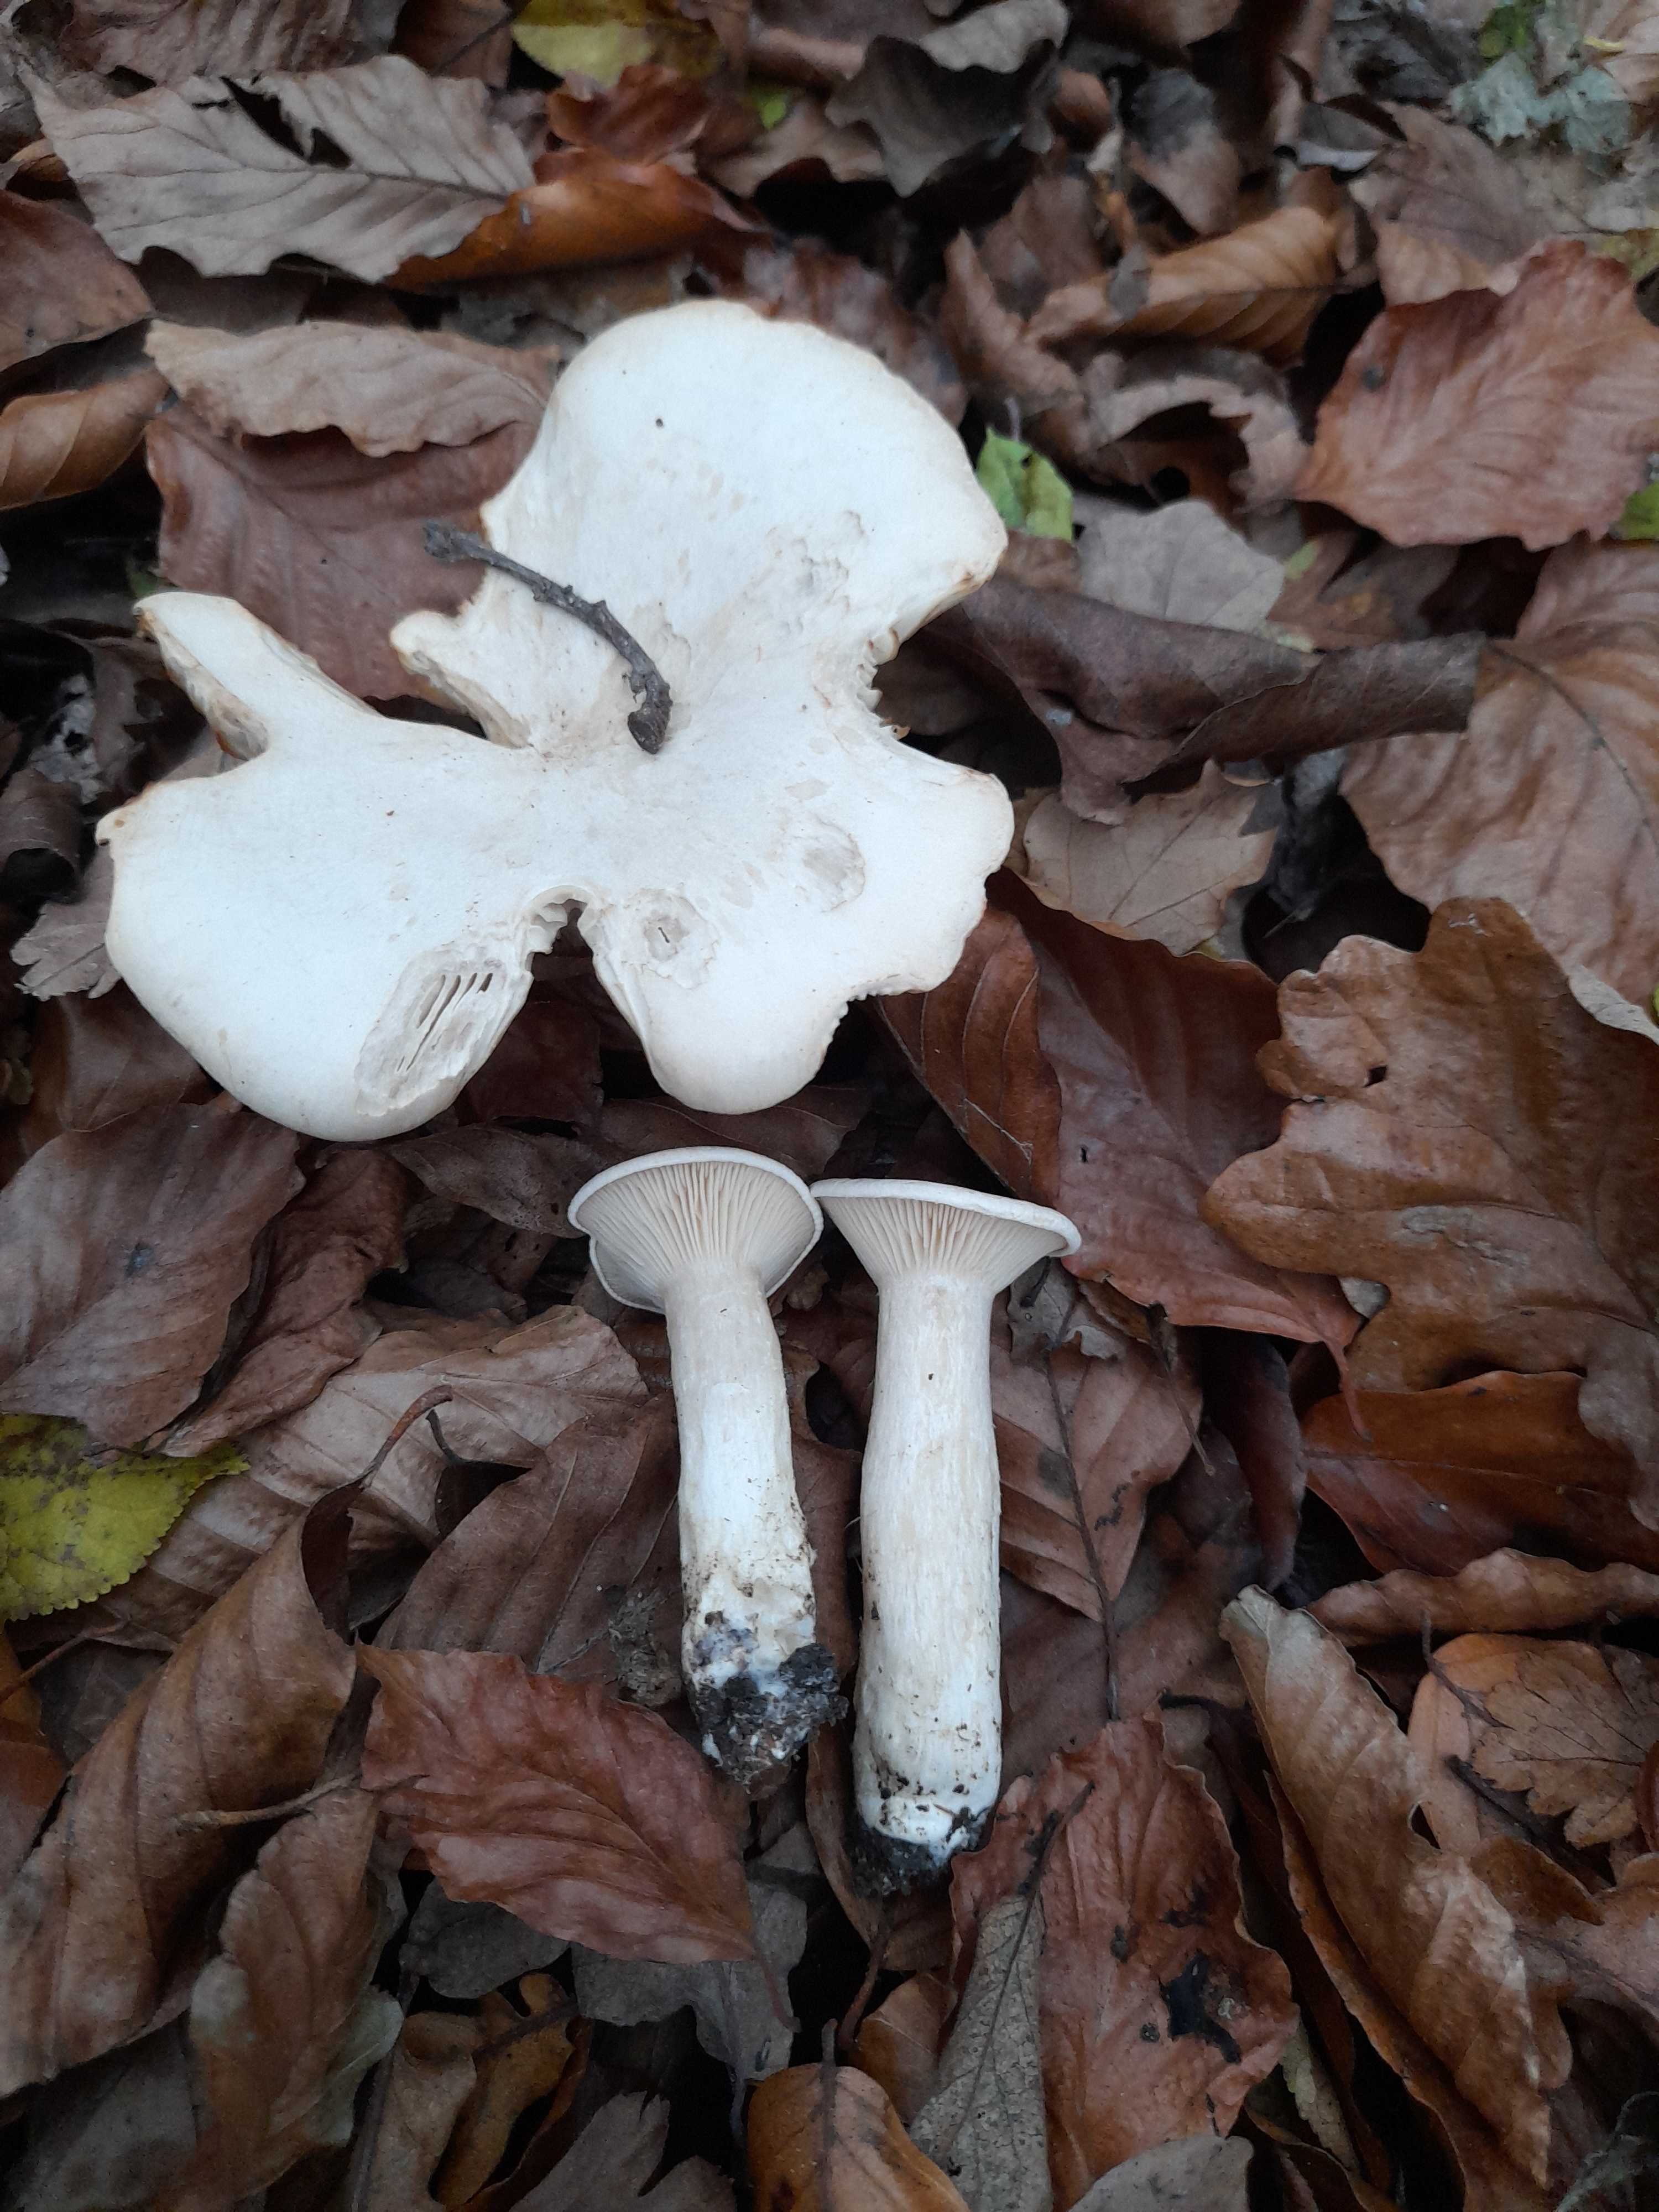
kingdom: Fungi
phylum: Basidiomycota
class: Agaricomycetes
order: Agaricales
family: Tricholomataceae
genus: Infundibulicybe
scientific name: Infundibulicybe geotropa
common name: stor tragthat
